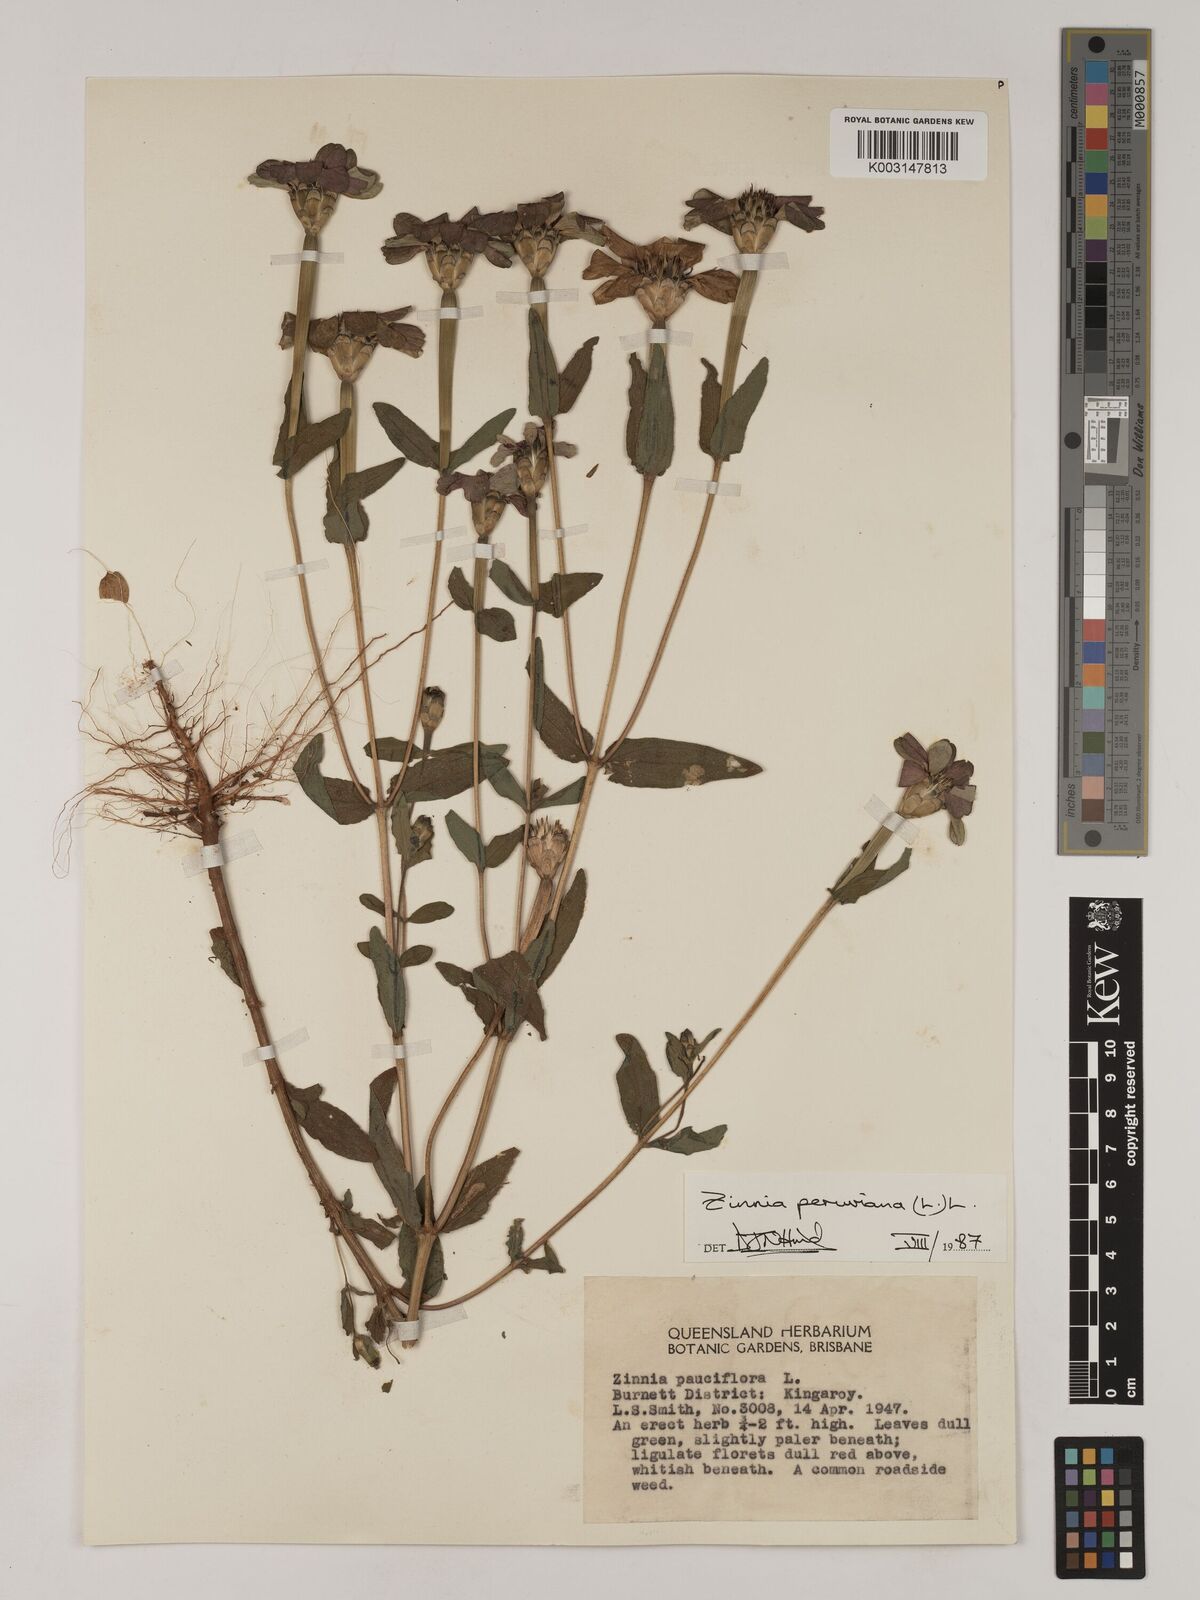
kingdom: Plantae
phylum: Tracheophyta
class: Magnoliopsida
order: Asterales
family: Asteraceae
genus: Zinnia
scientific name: Zinnia peruviana
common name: Peruvian zinnia
